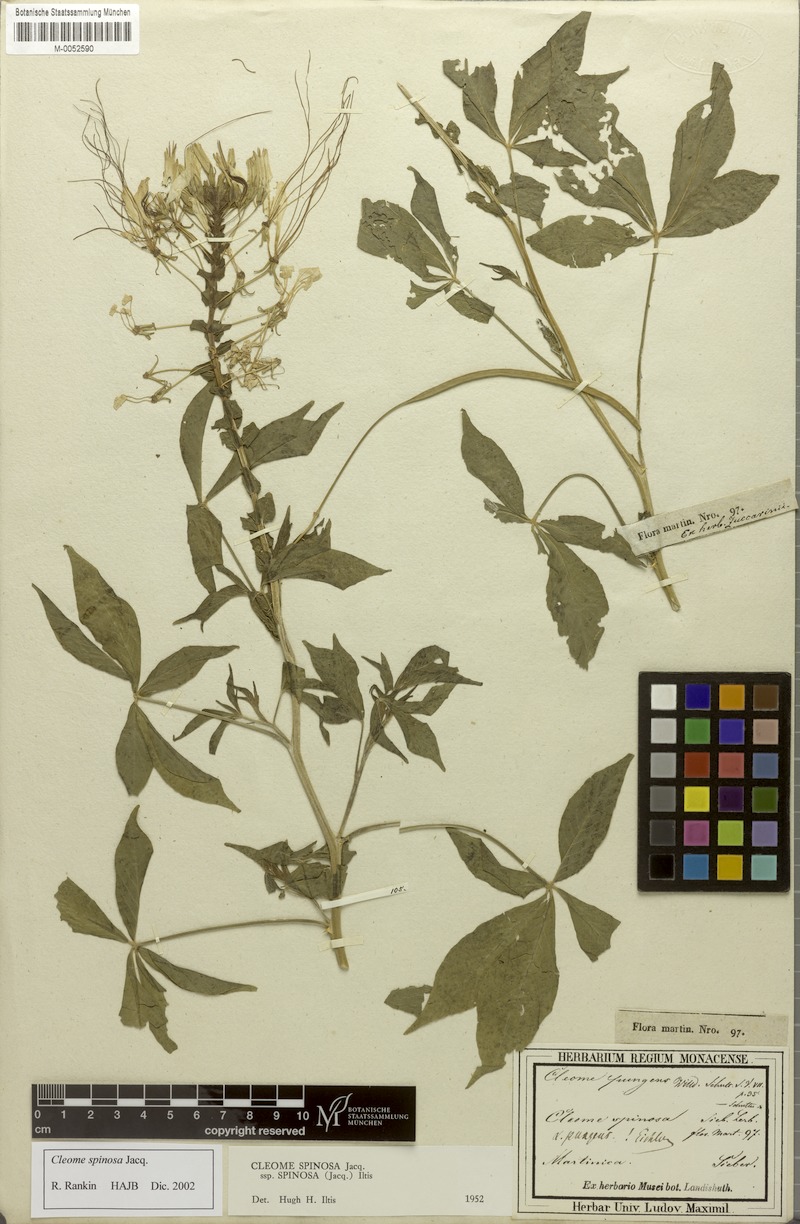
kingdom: Plantae
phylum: Tracheophyta
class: Magnoliopsida
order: Brassicales
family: Cleomaceae
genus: Tarenaya
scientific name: Tarenaya spinosa
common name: Spiny spiderflower
